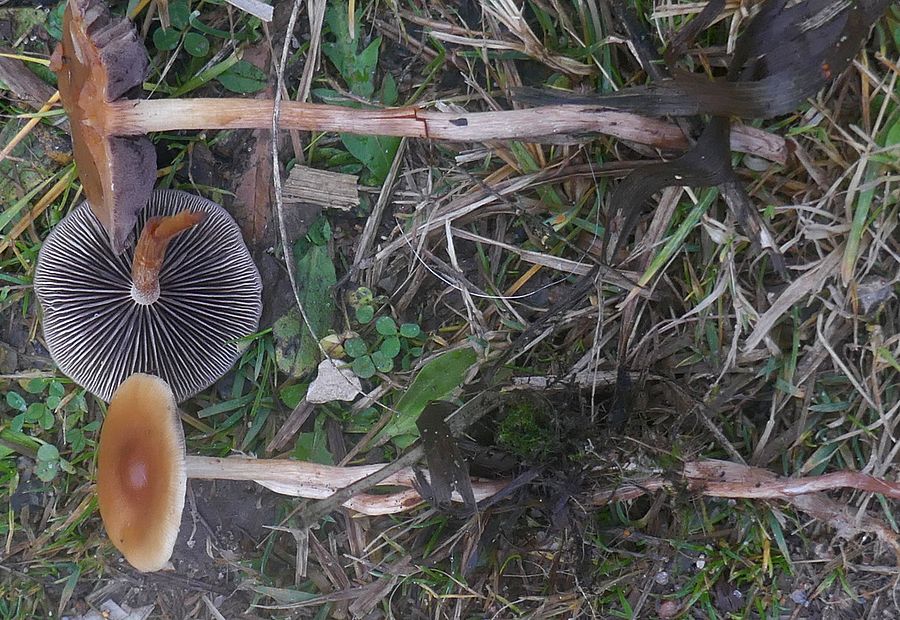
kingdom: Fungi
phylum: Basidiomycota
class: Agaricomycetes
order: Agaricales
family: Strophariaceae
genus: Hypholoma
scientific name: Hypholoma subericaeum
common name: eng-svovlhat
